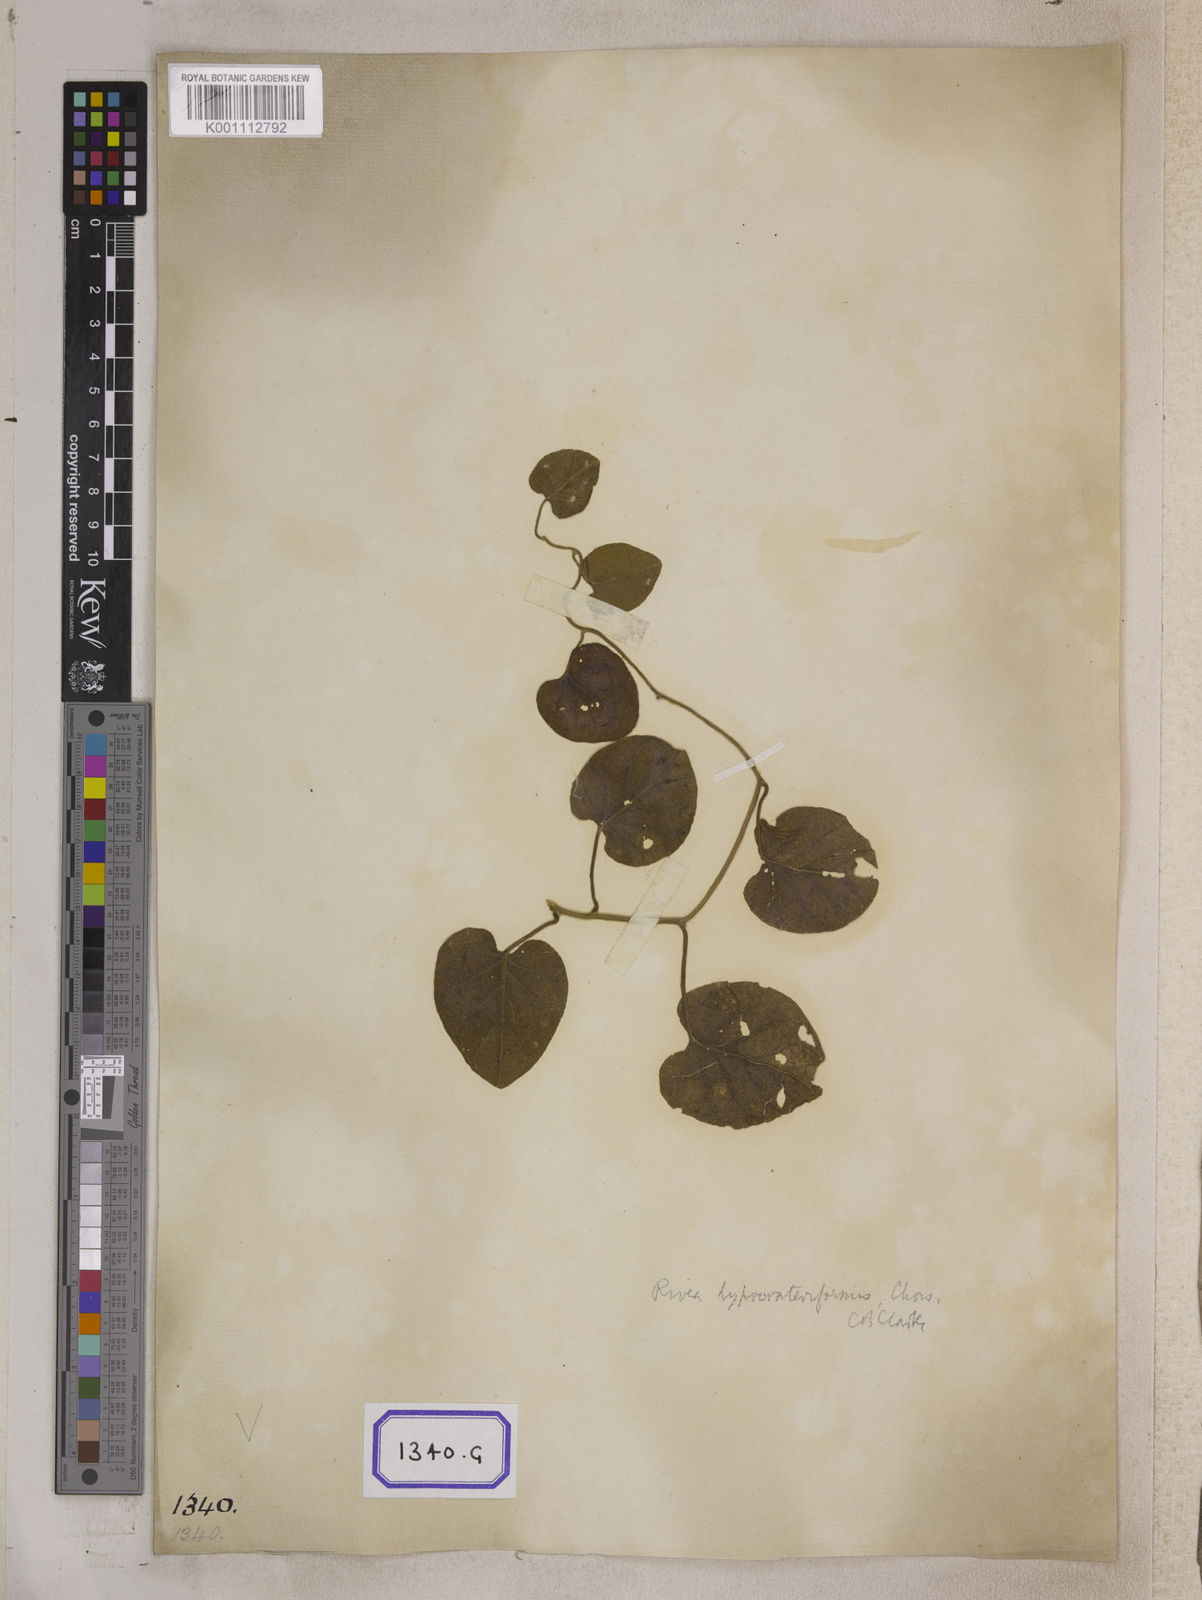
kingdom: Plantae
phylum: Tracheophyta
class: Magnoliopsida
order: Solanales
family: Convolvulaceae
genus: Stictocardia
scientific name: Stictocardia tiliifolia
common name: Spottedheart
